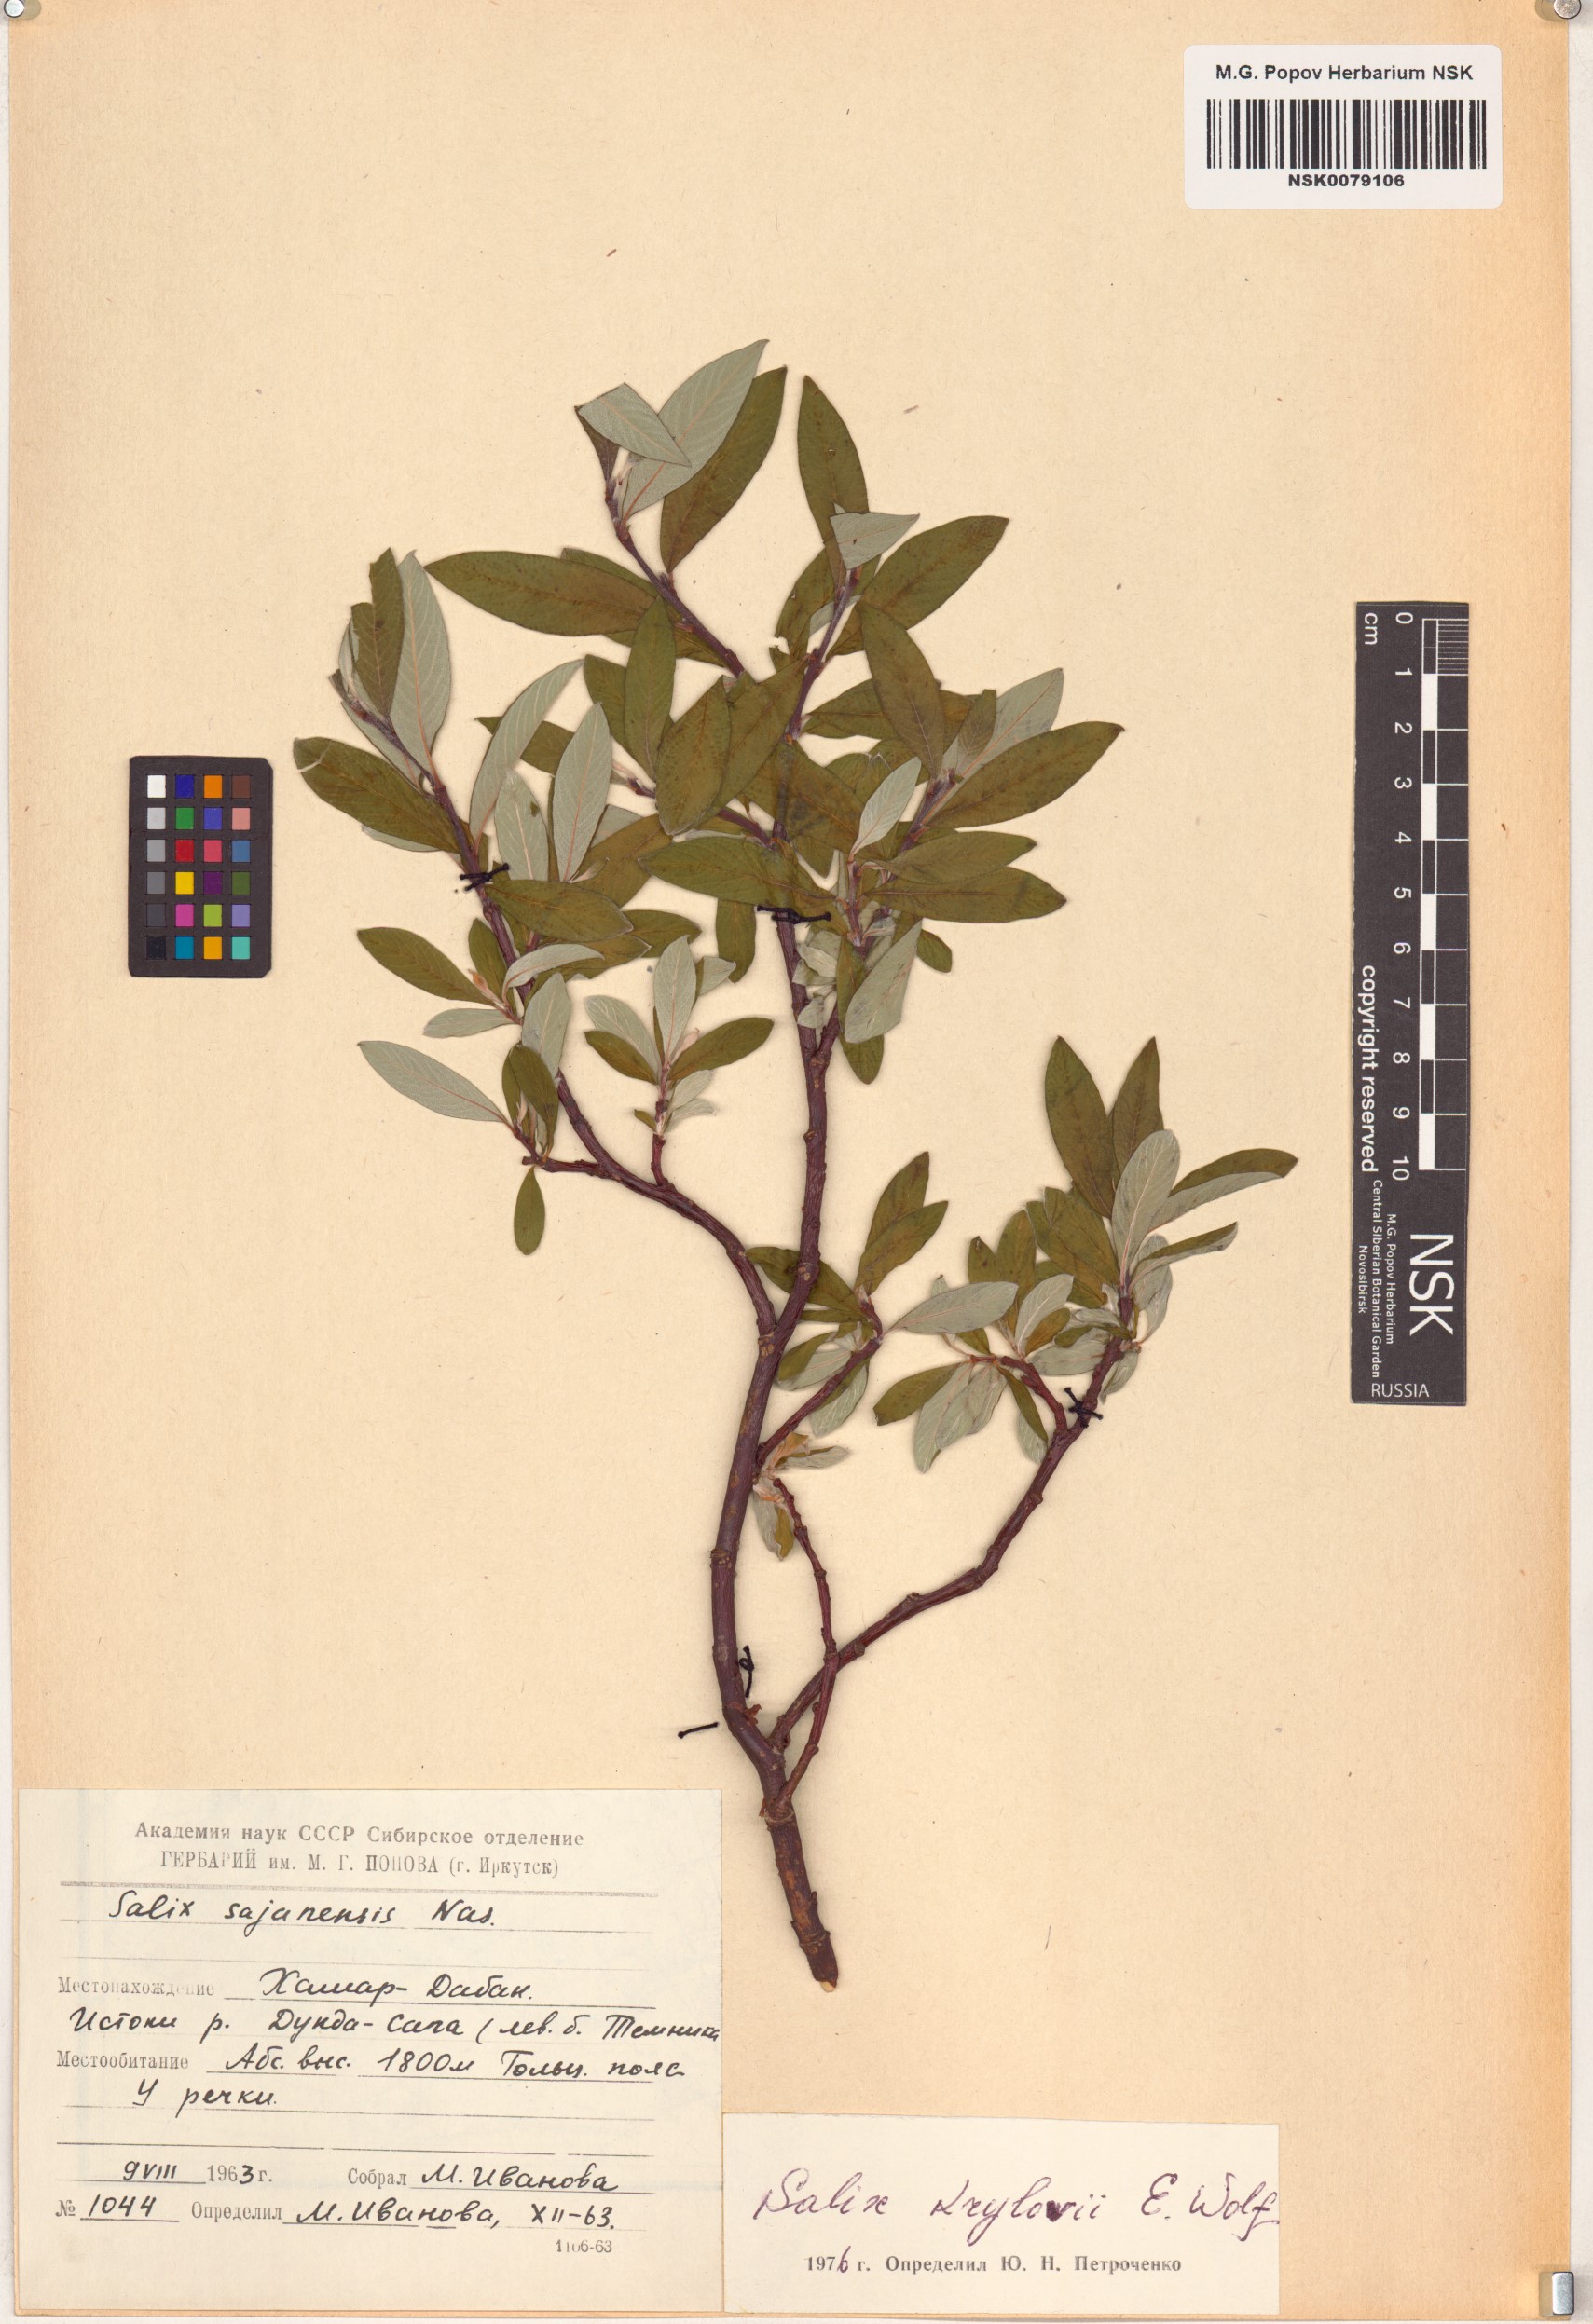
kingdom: Plantae
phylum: Tracheophyta
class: Magnoliopsida
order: Malpighiales
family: Salicaceae
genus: Salix
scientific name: Salix krylovii
